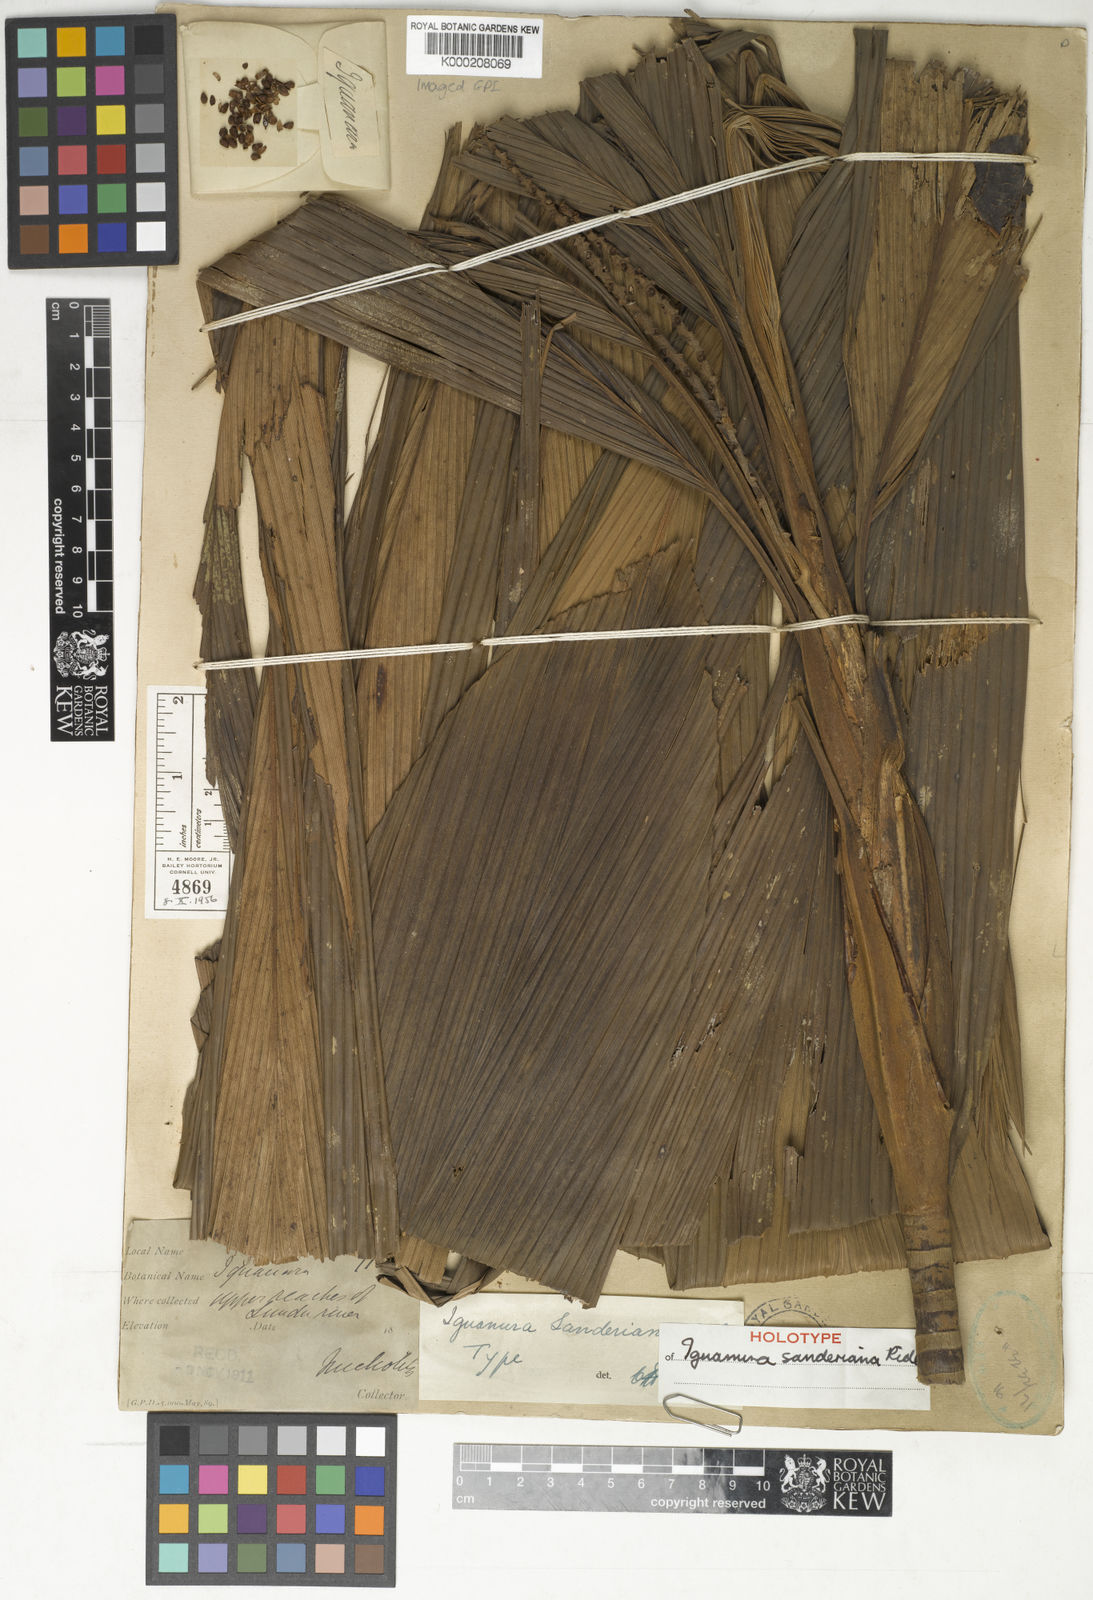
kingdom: Plantae
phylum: Tracheophyta
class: Liliopsida
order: Arecales
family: Arecaceae
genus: Iguanura
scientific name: Iguanura sanderiana
